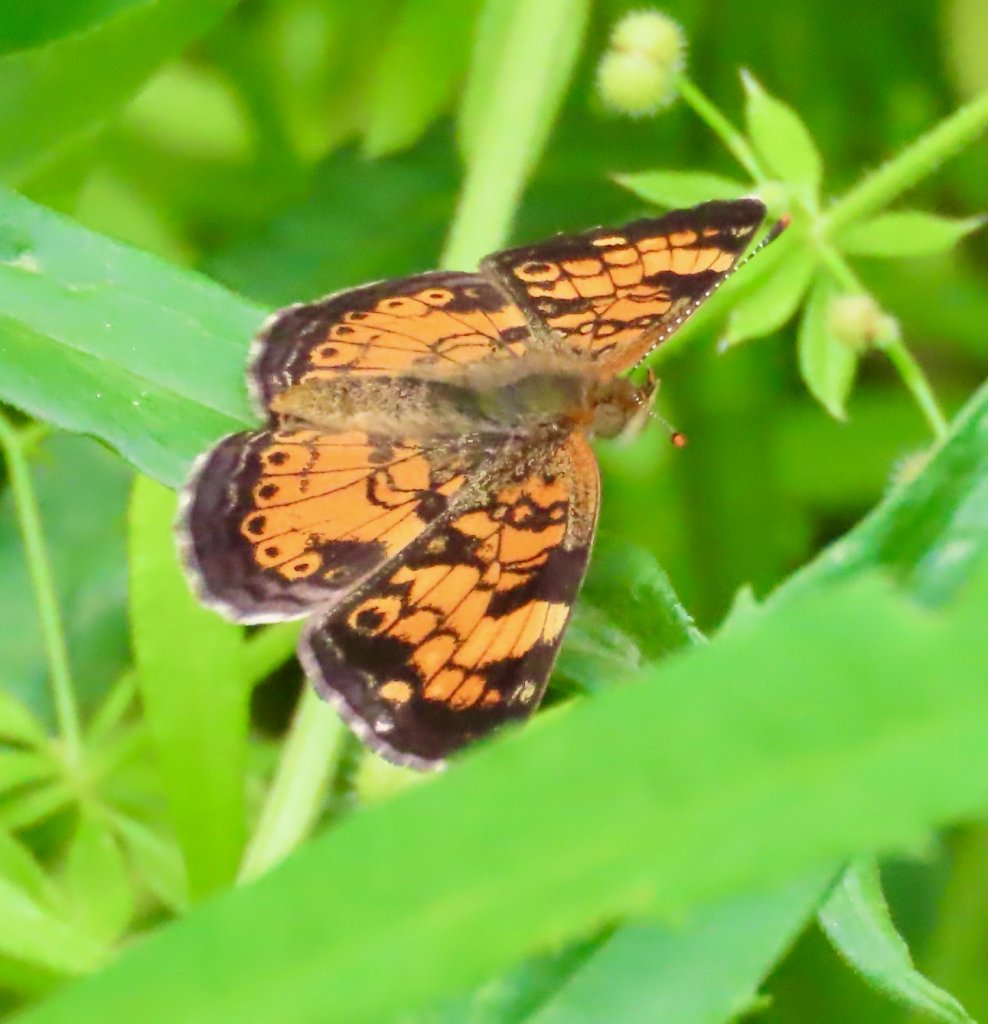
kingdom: Animalia
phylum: Arthropoda
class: Insecta
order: Lepidoptera
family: Nymphalidae
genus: Phyciodes
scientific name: Phyciodes tharos
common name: Pearl Crescent
